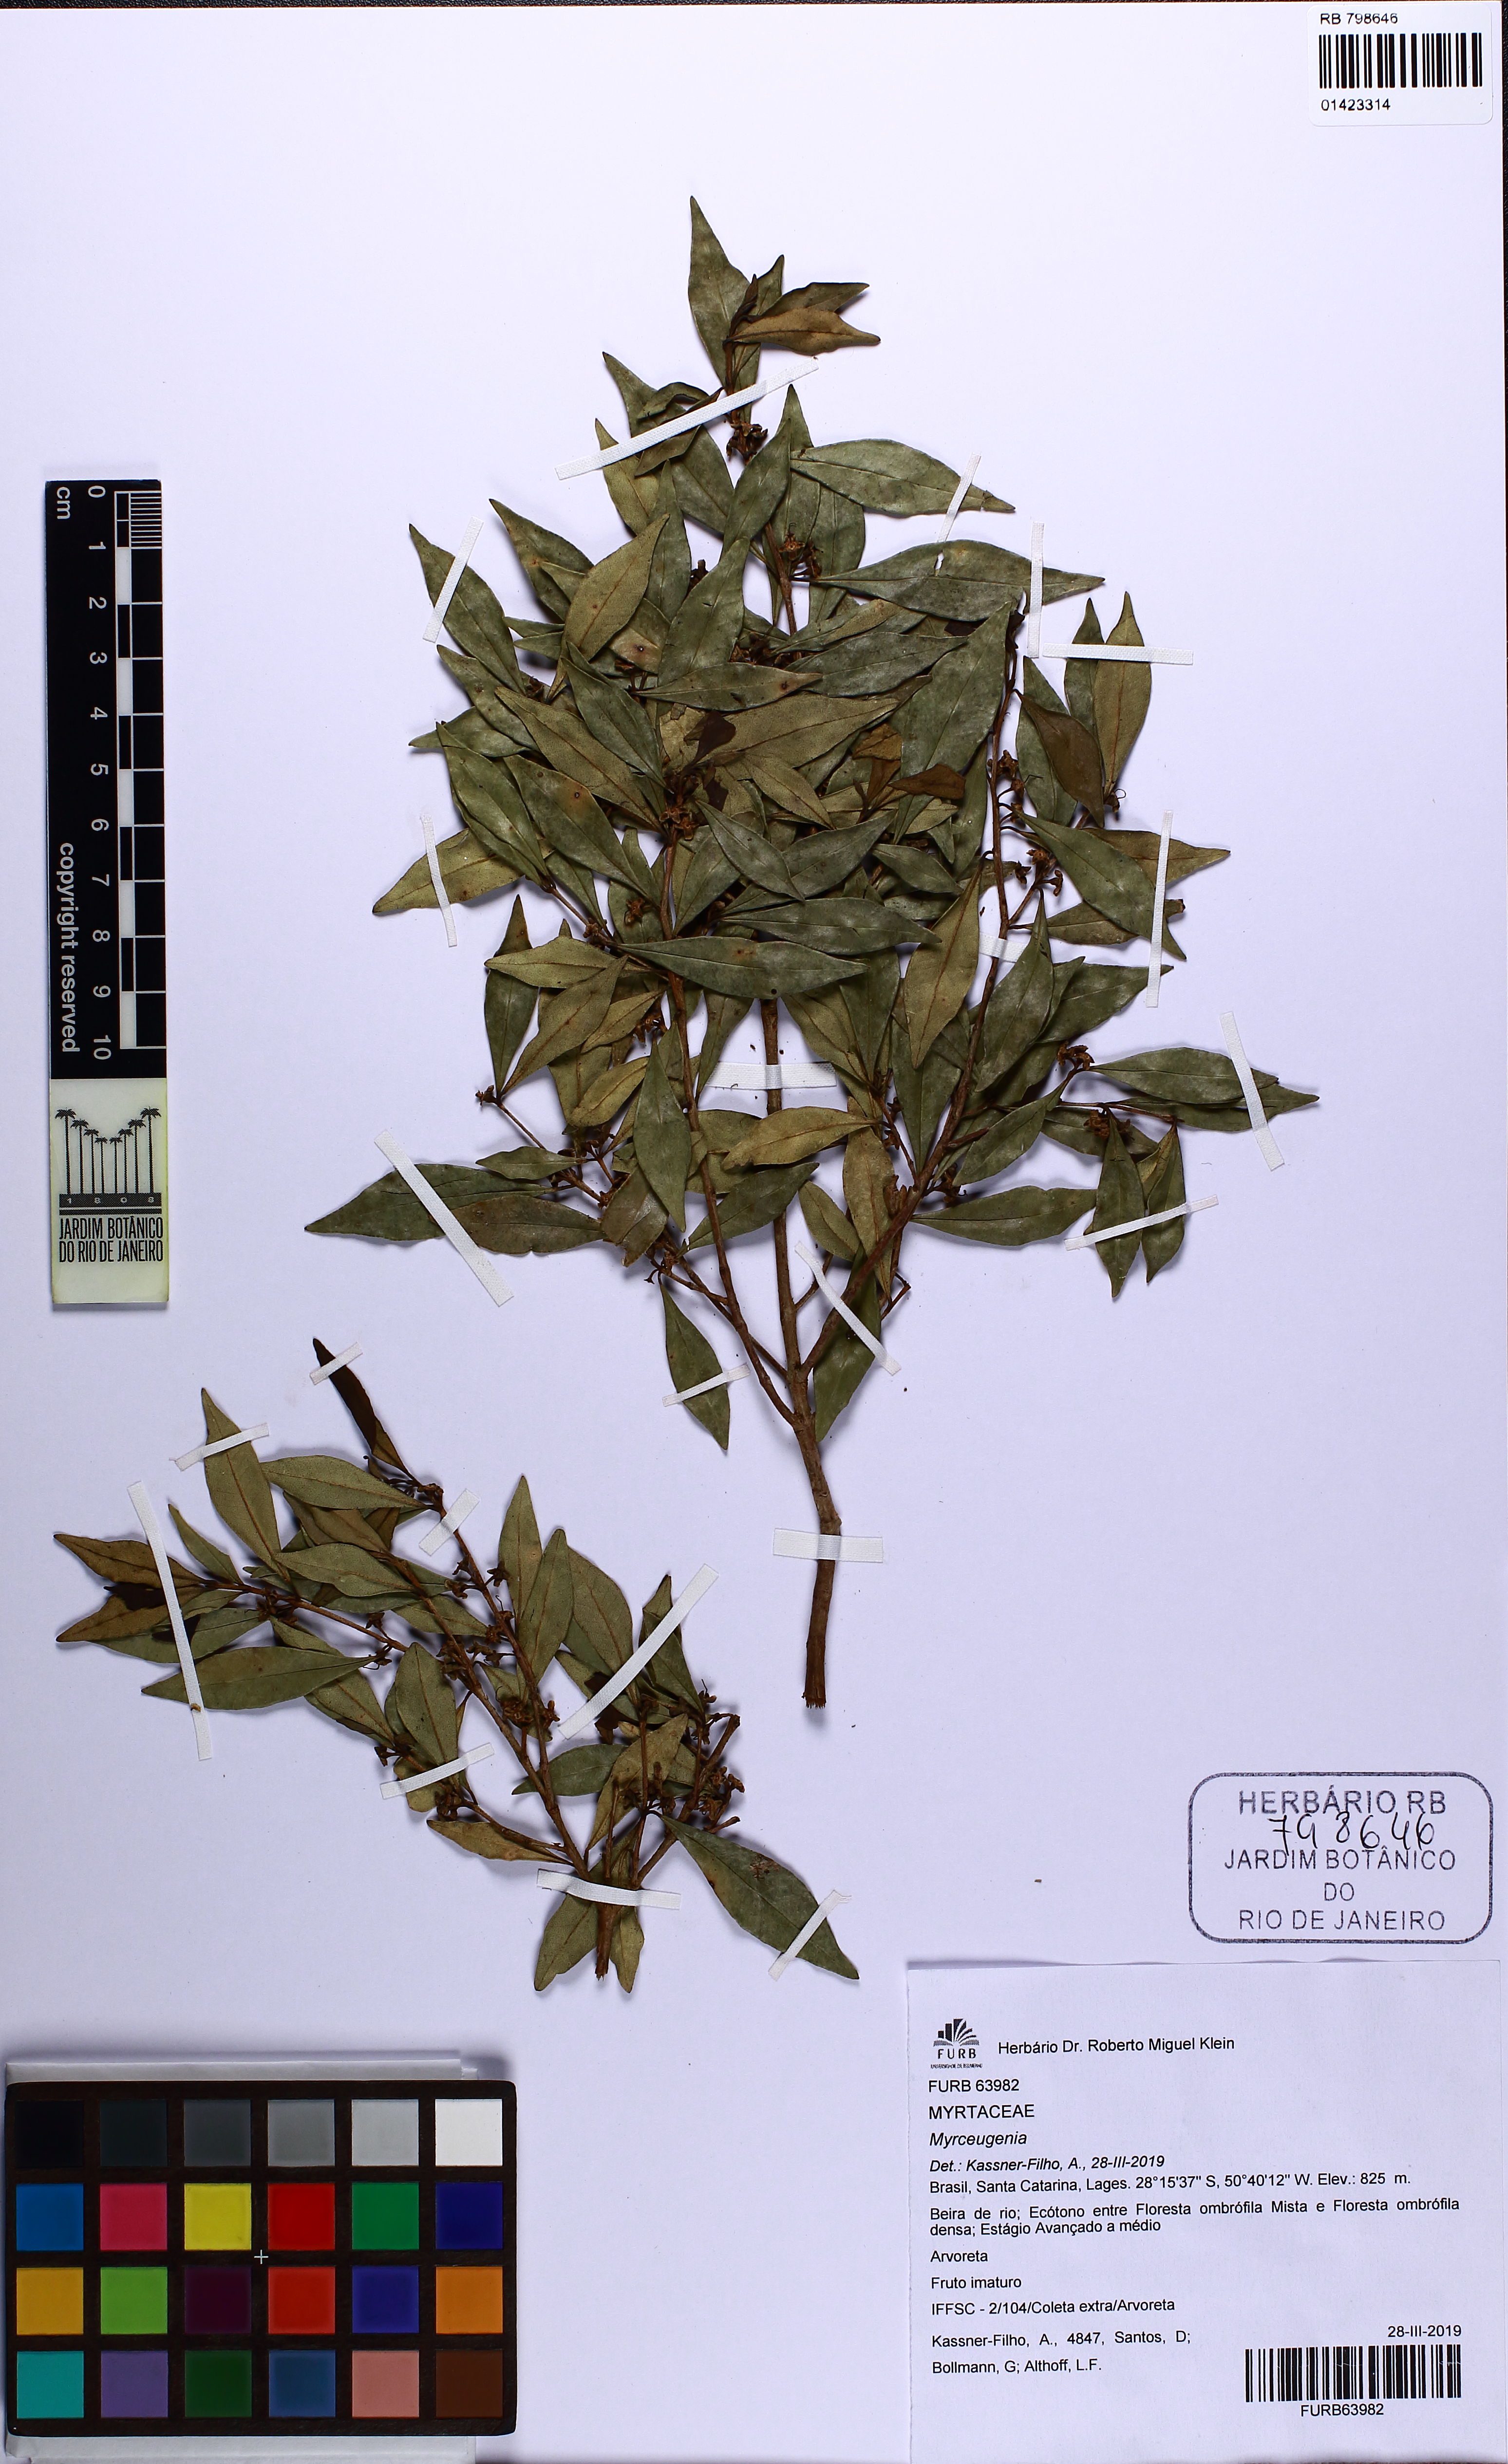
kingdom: Plantae
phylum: Tracheophyta
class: Magnoliopsida
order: Myrtales
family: Myrtaceae
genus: Myrceugenia
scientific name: Myrceugenia
